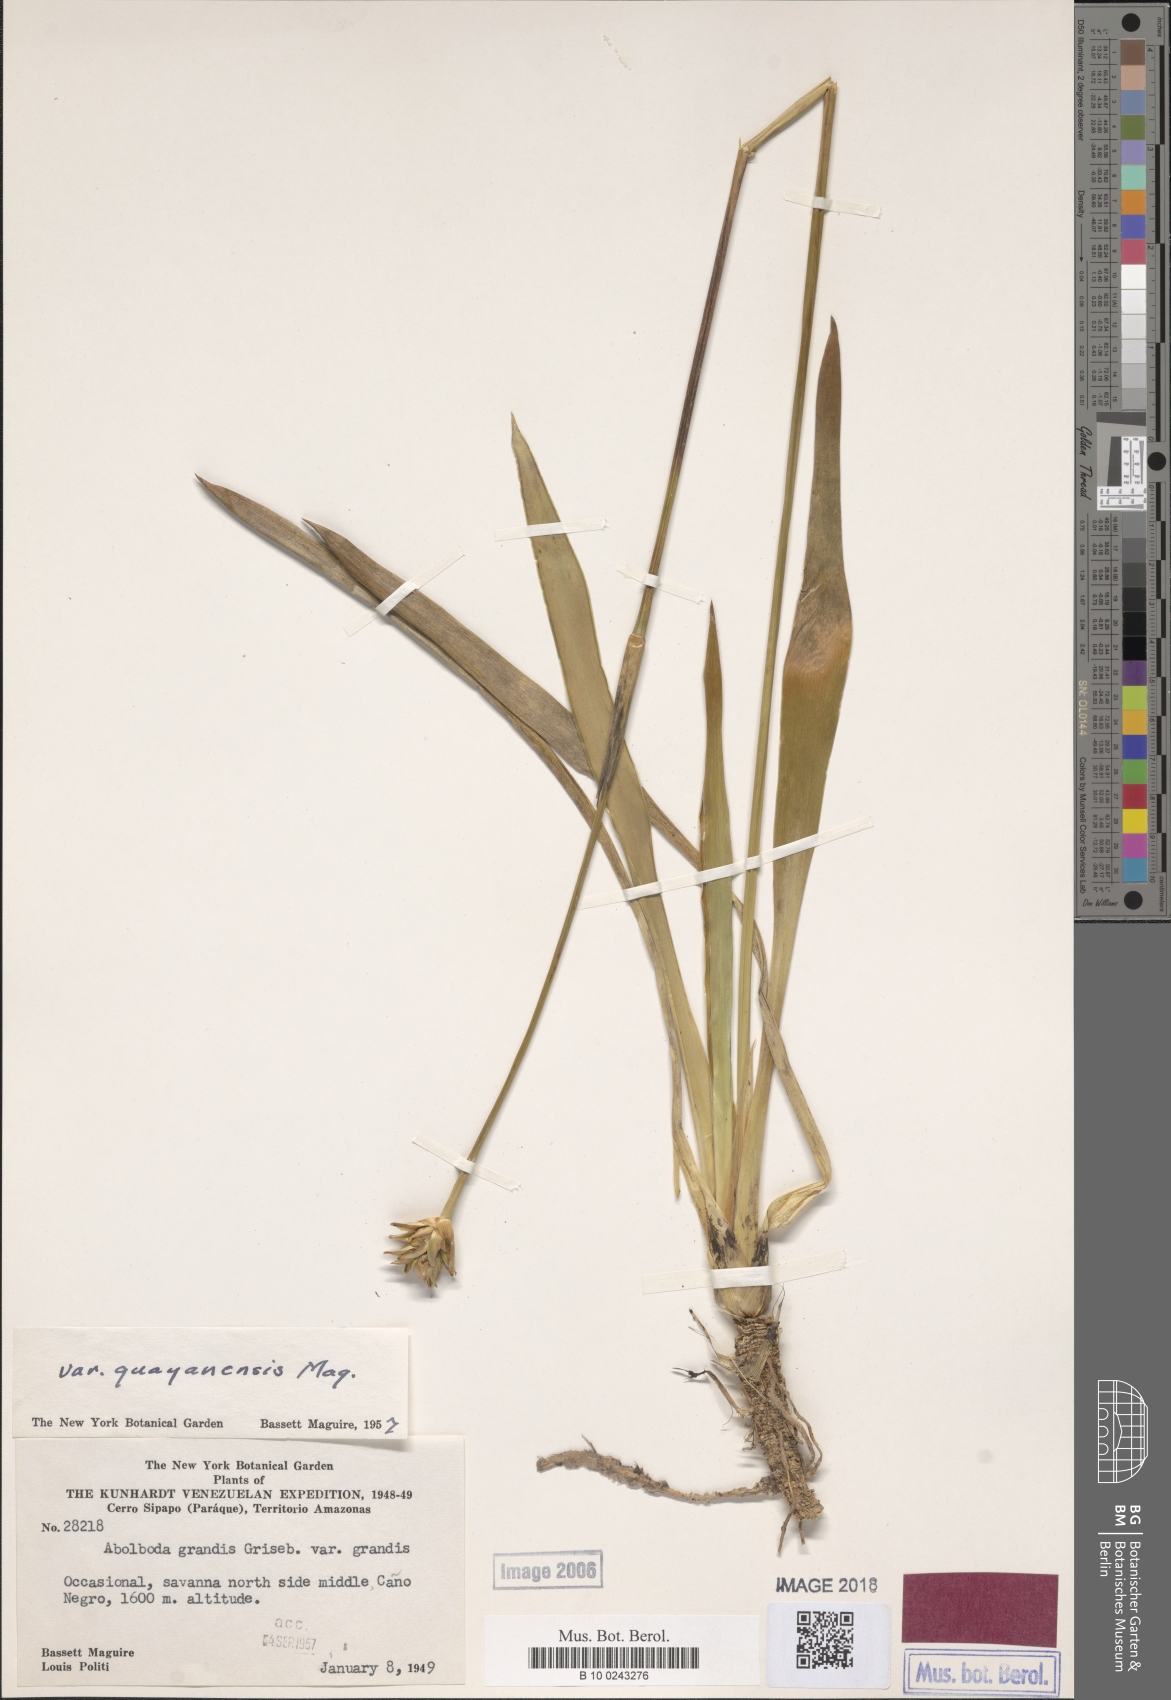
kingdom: Plantae
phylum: Tracheophyta
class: Liliopsida
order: Poales
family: Xyridaceae
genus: Abolboda
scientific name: Abolboda grandis
